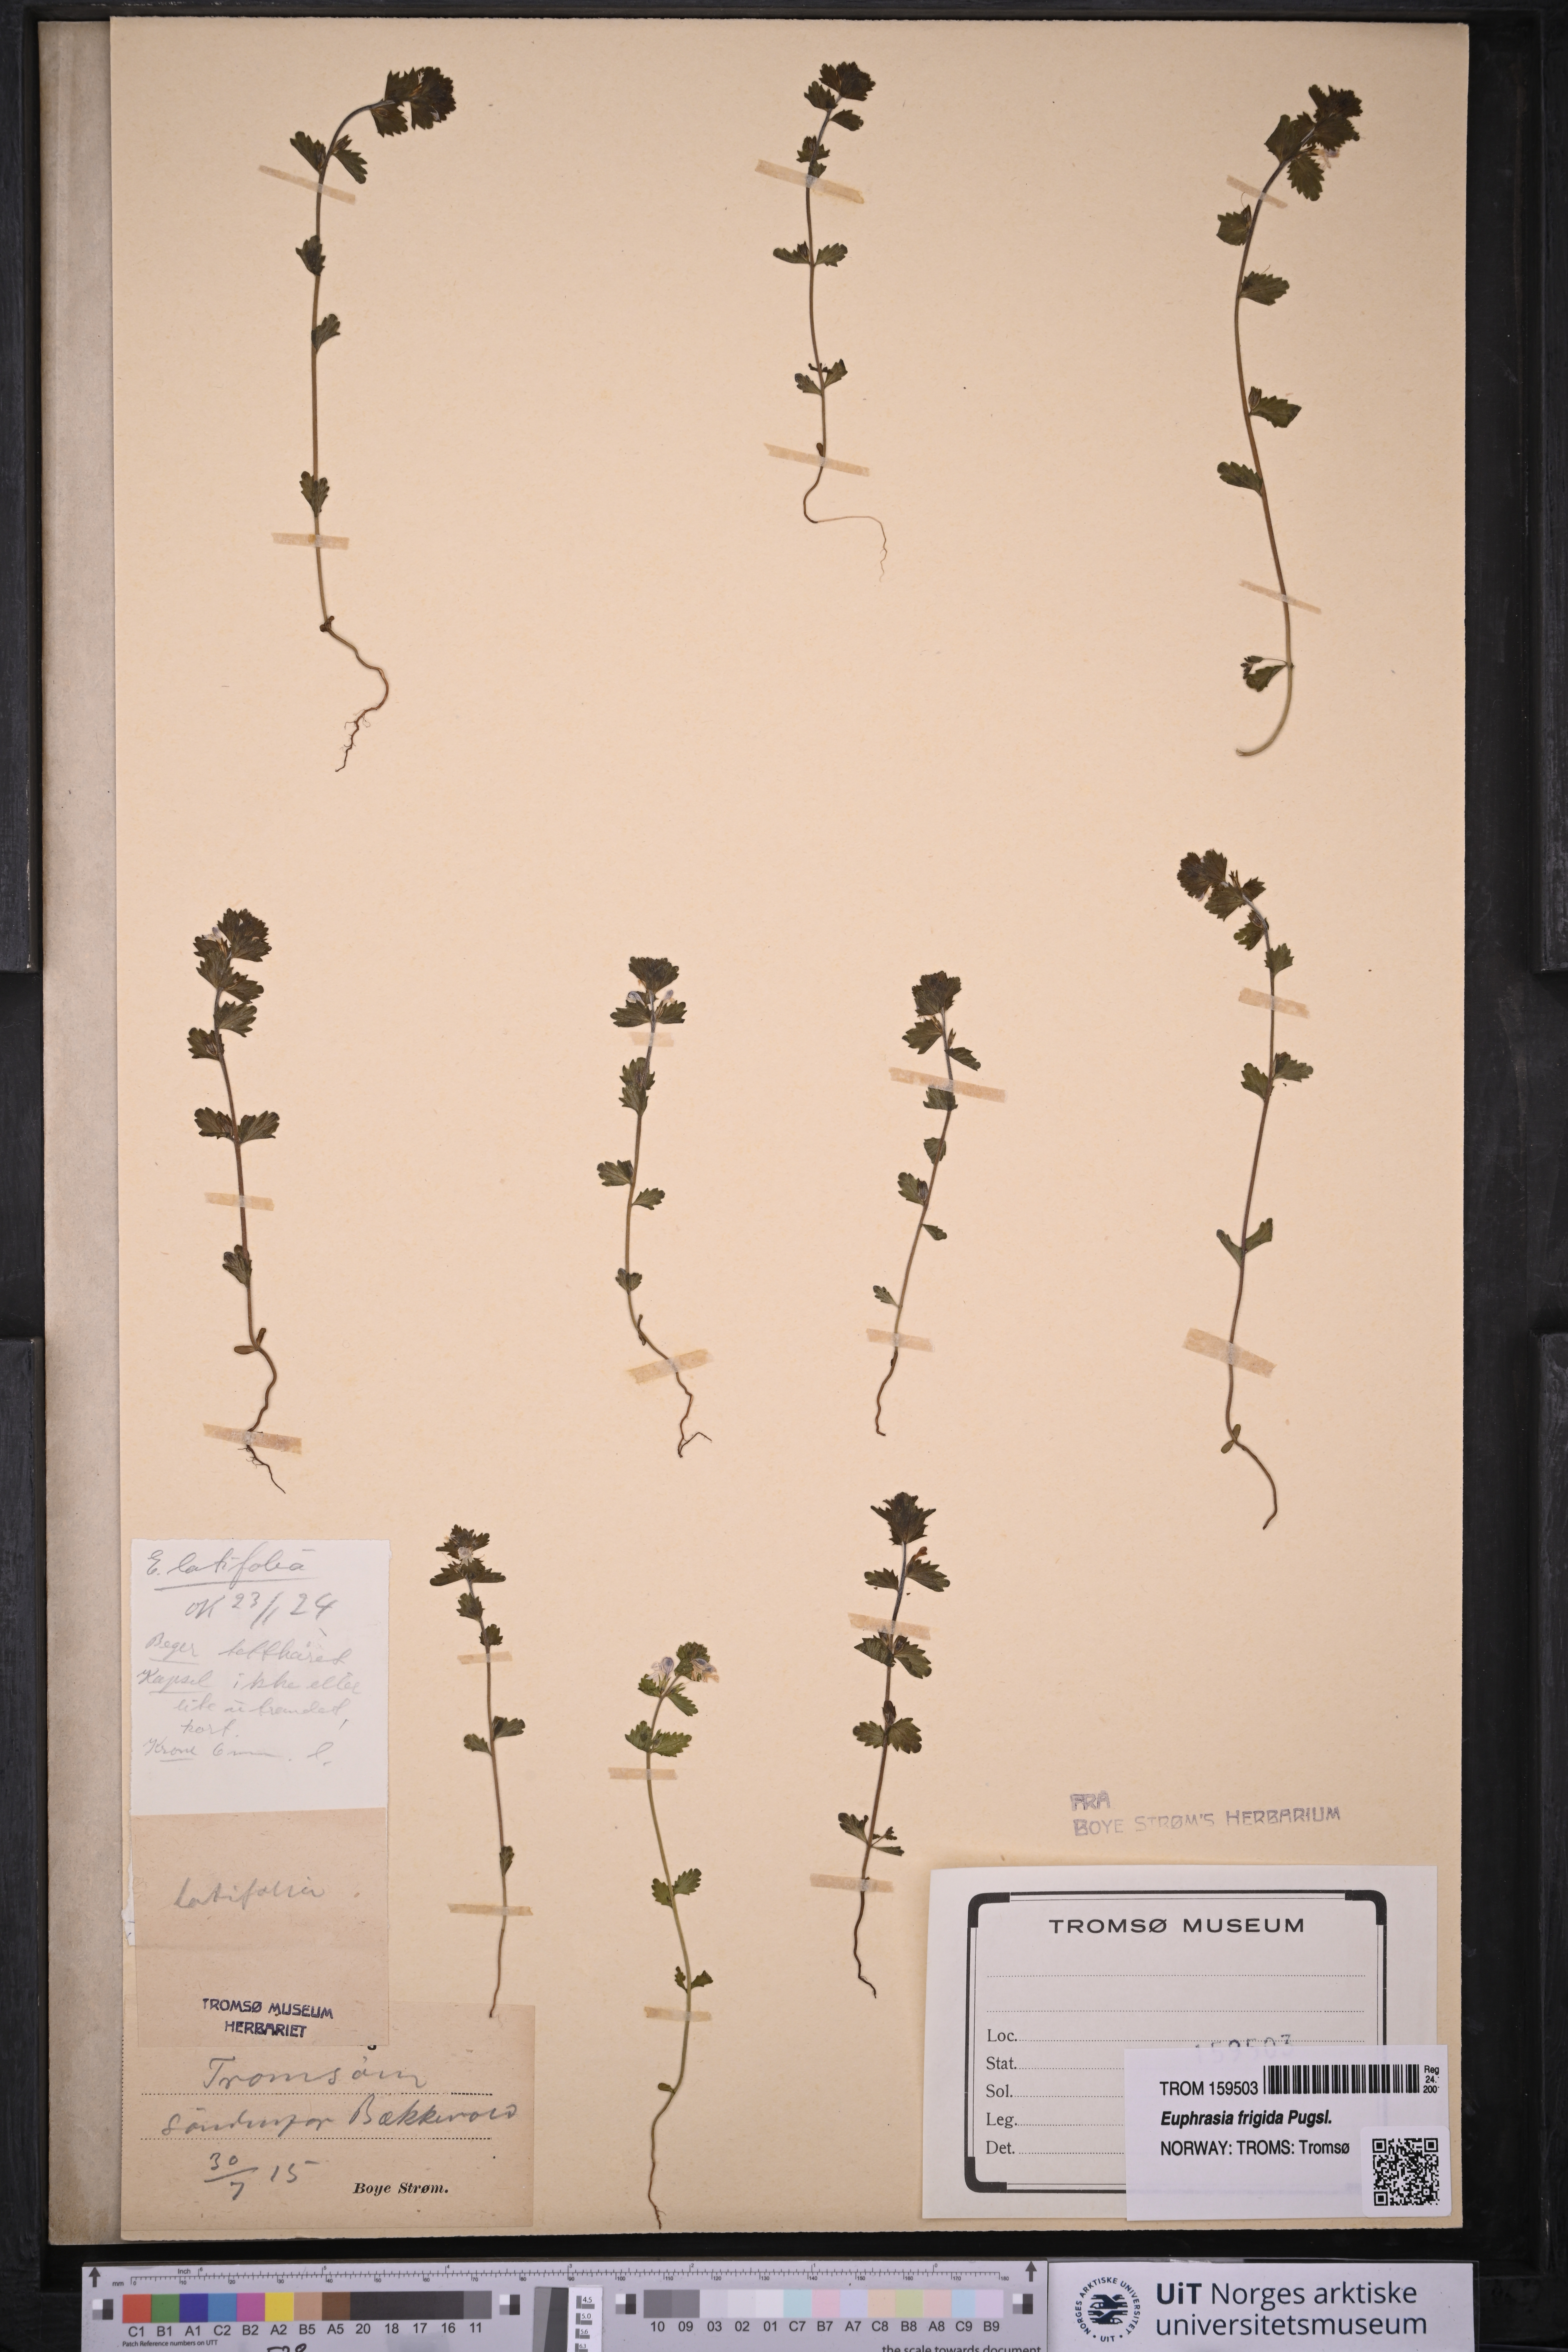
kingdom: Plantae
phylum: Tracheophyta
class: Magnoliopsida
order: Lamiales
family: Orobanchaceae
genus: Euphrasia
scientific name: Euphrasia wettsteinii
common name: Wettstein's eyebright
